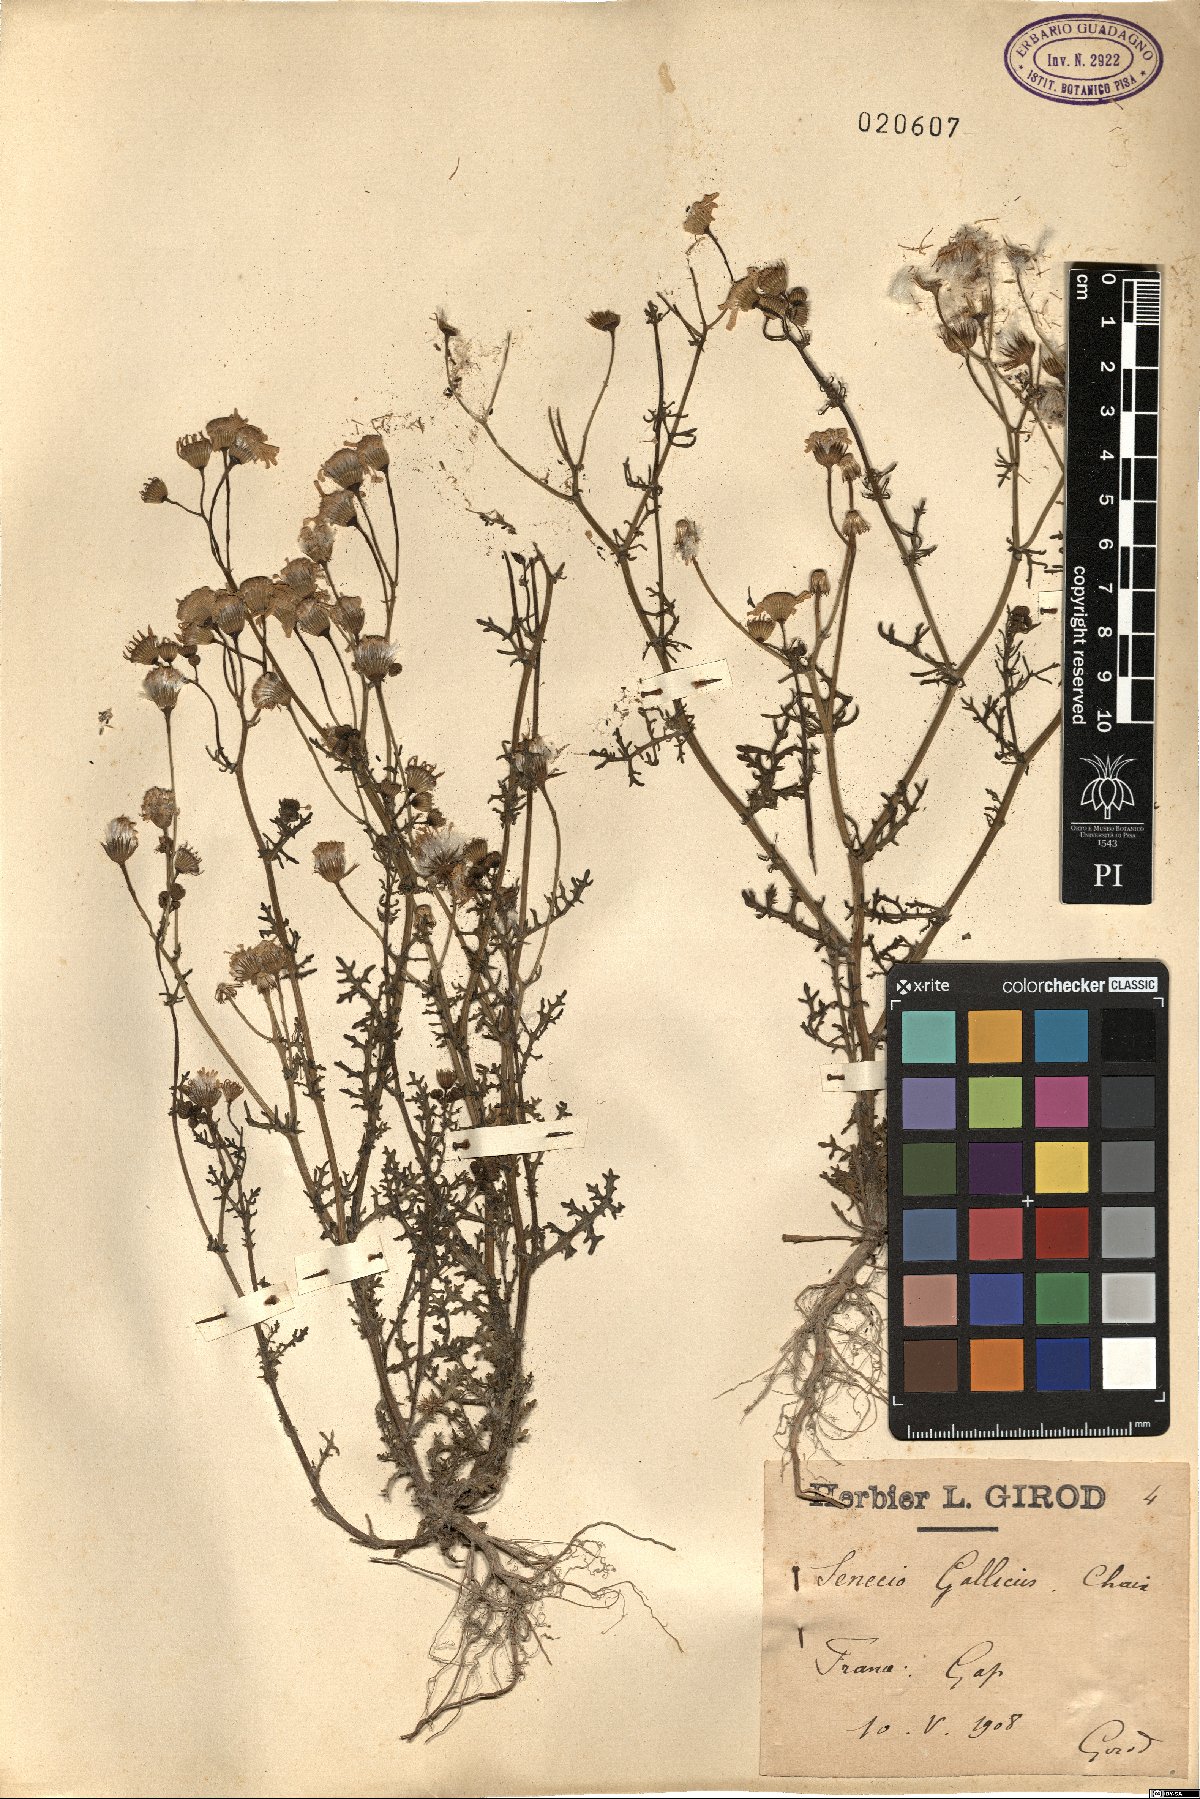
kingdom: Plantae
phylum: Tracheophyta
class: Magnoliopsida
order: Asterales
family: Asteraceae
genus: Senecio
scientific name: Senecio gallicus
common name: French groundsel
